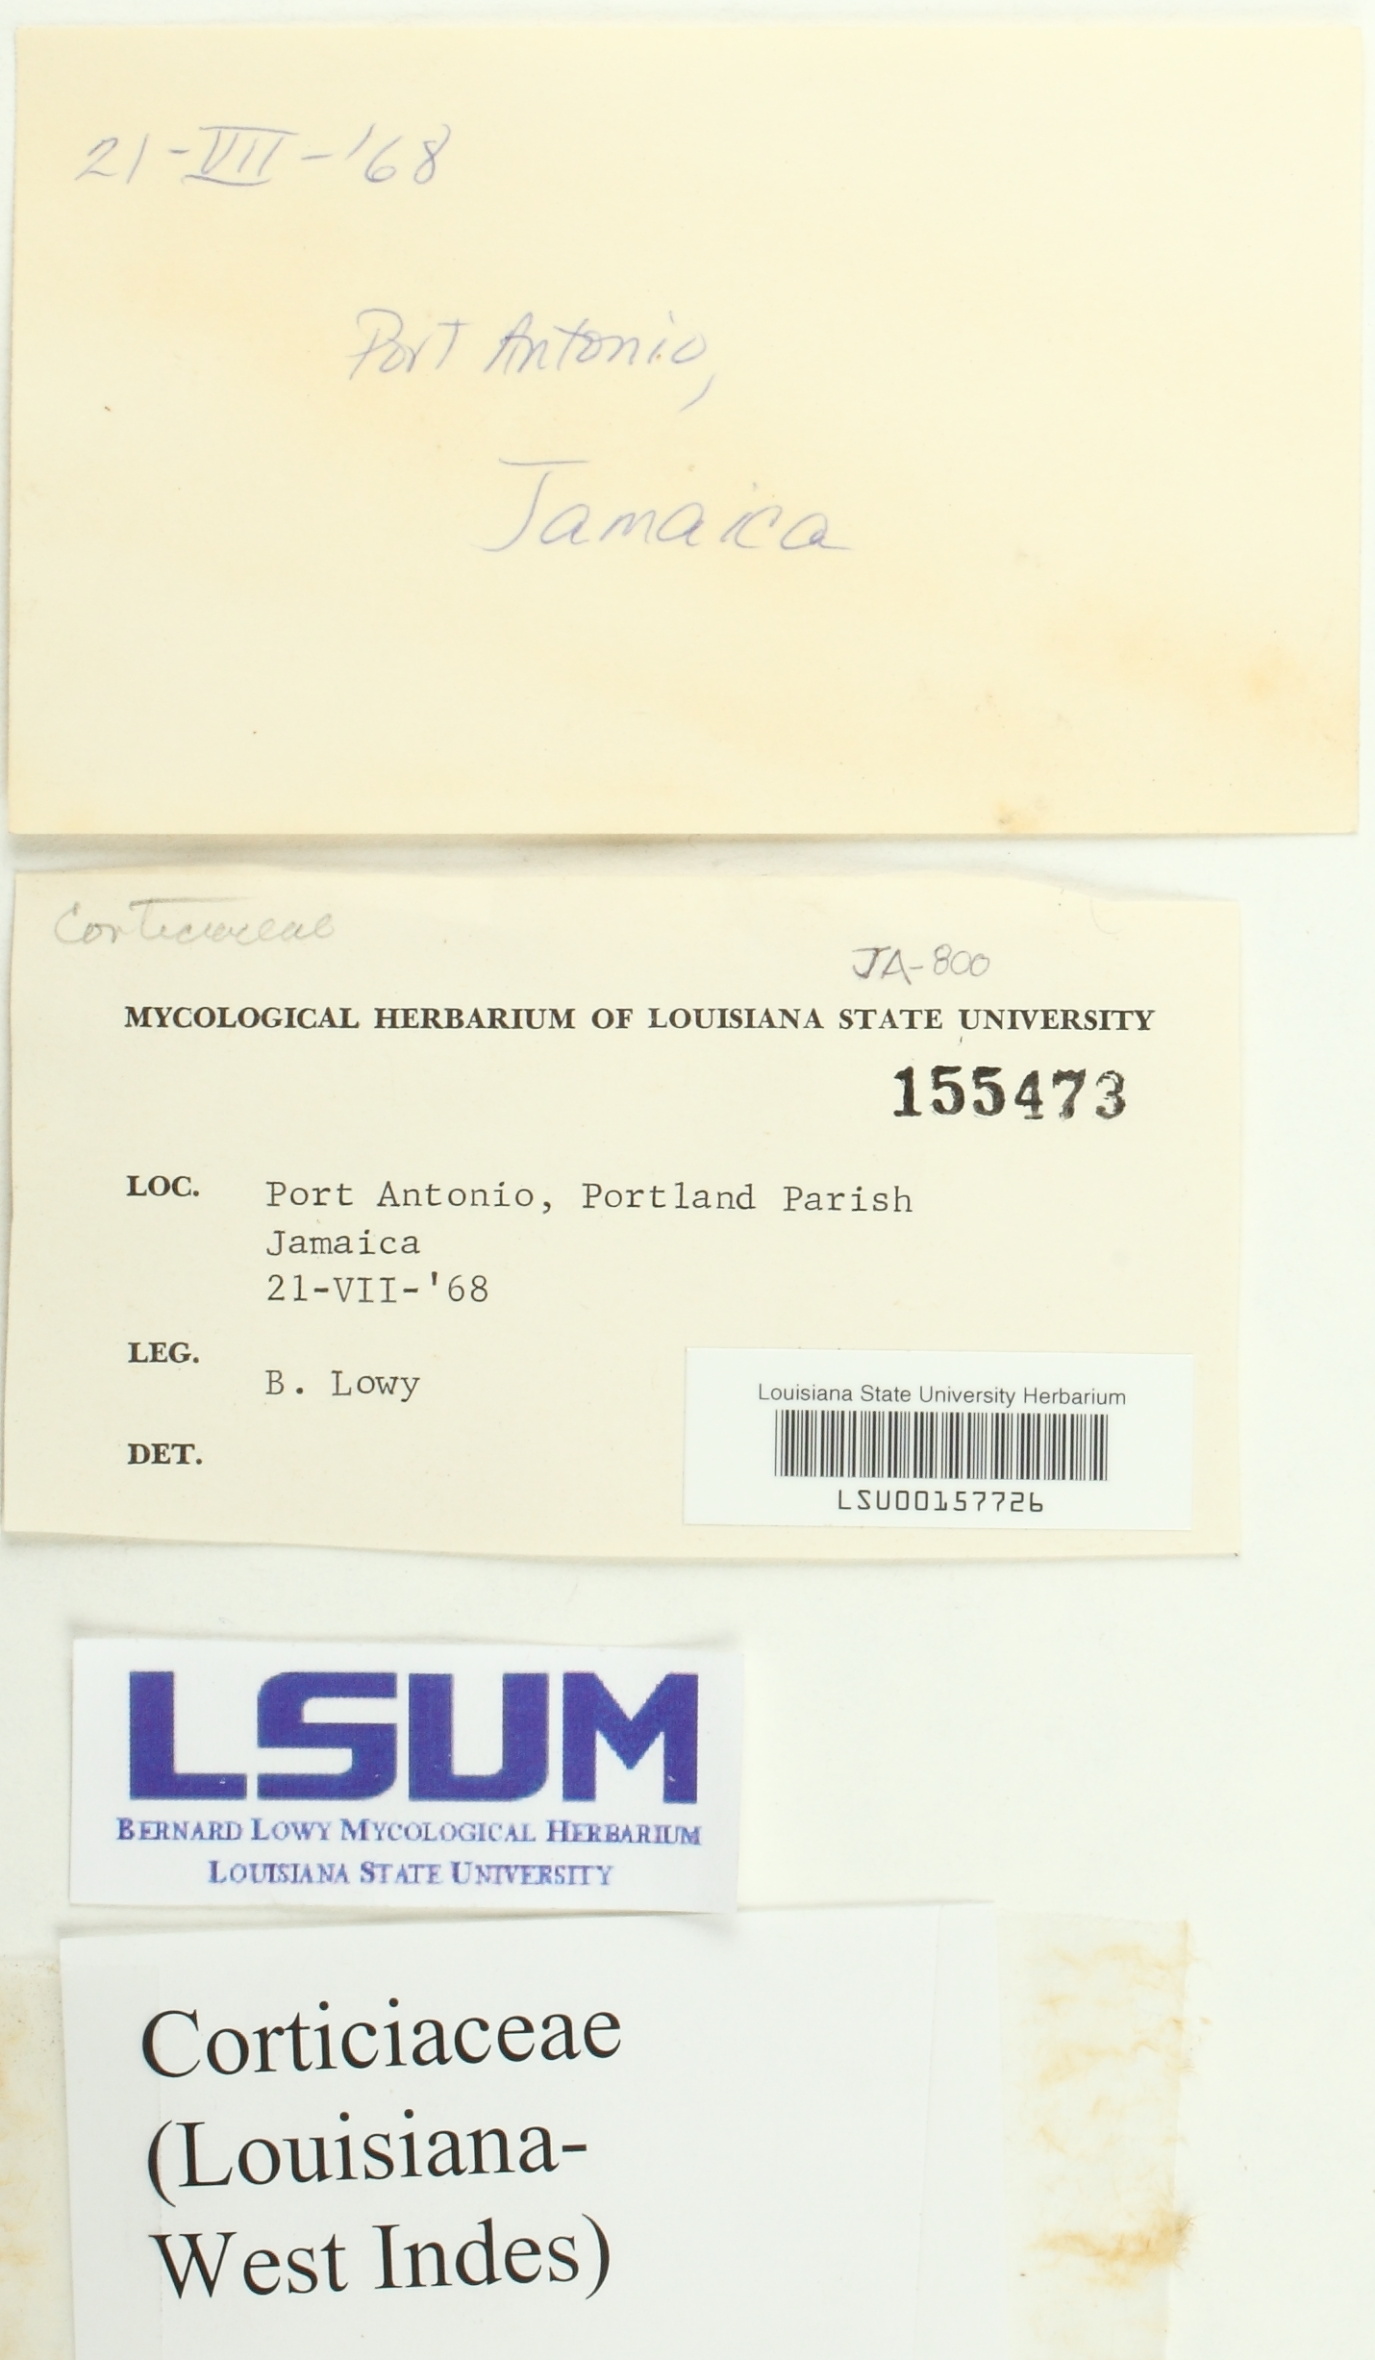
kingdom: Fungi
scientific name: Fungi
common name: Fungi
